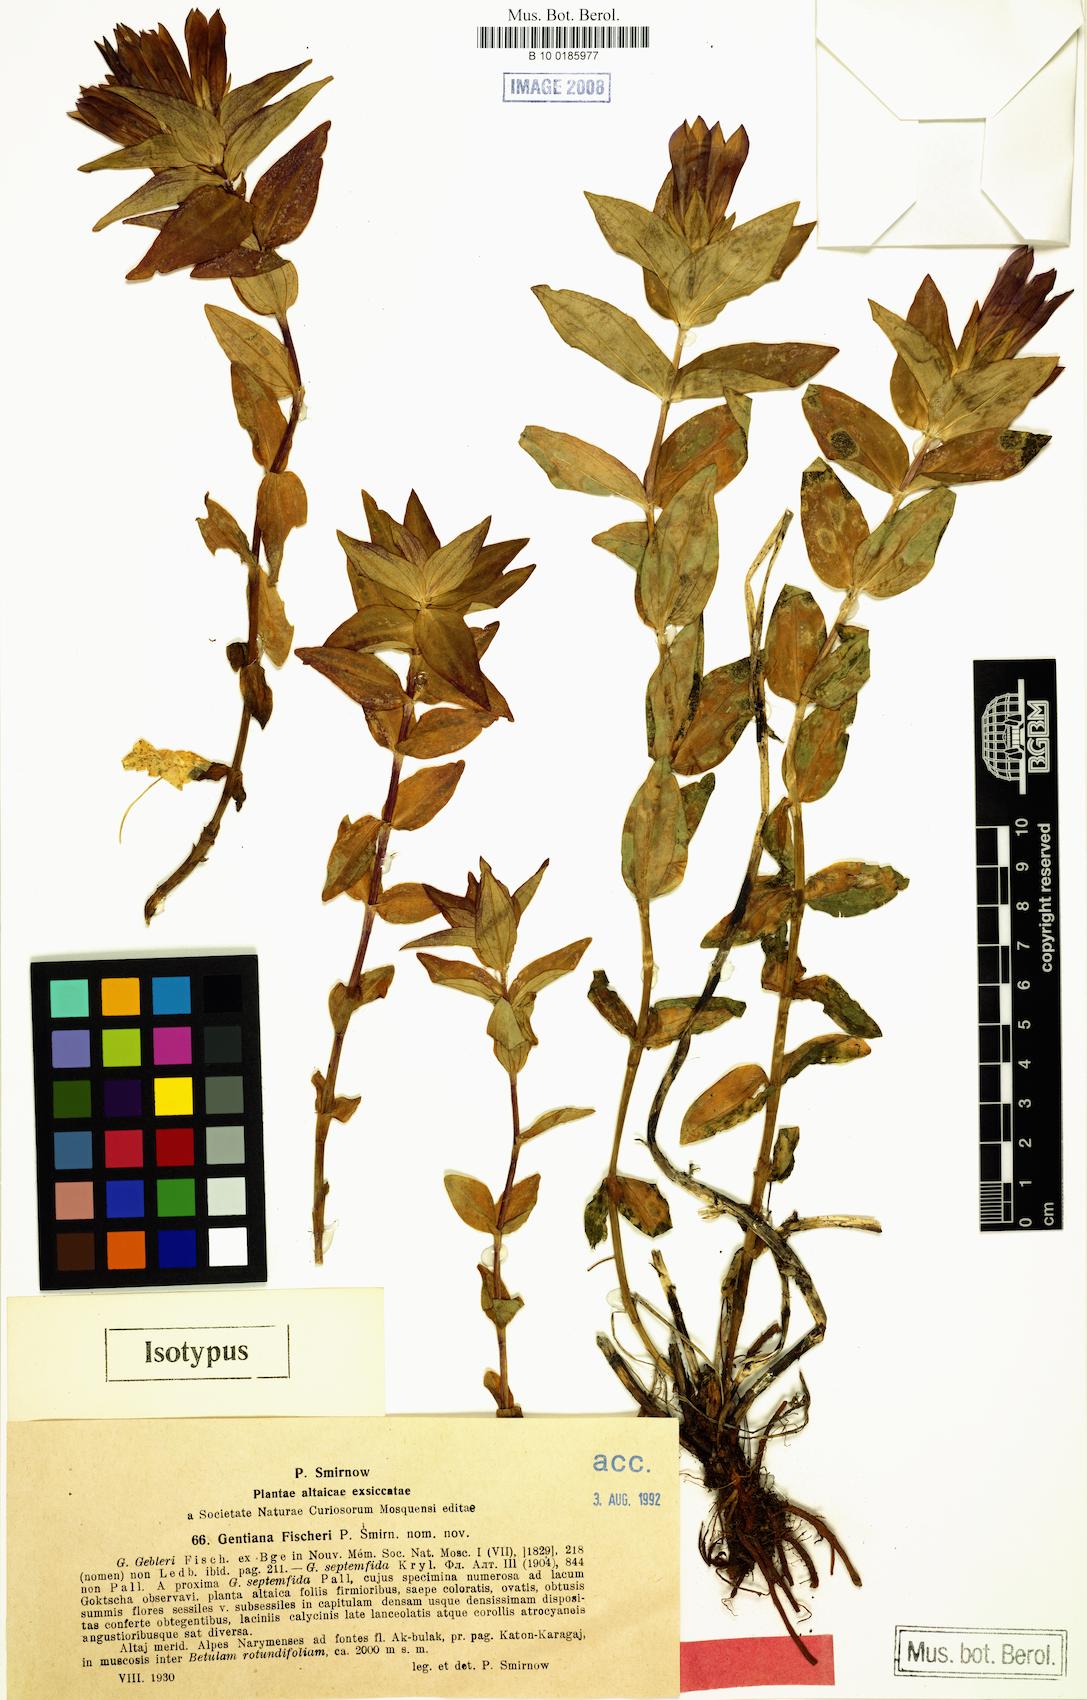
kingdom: Plantae
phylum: Tracheophyta
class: Magnoliopsida
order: Gentianales
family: Gentianaceae
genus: Gentiana
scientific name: Gentiana dschungarica
